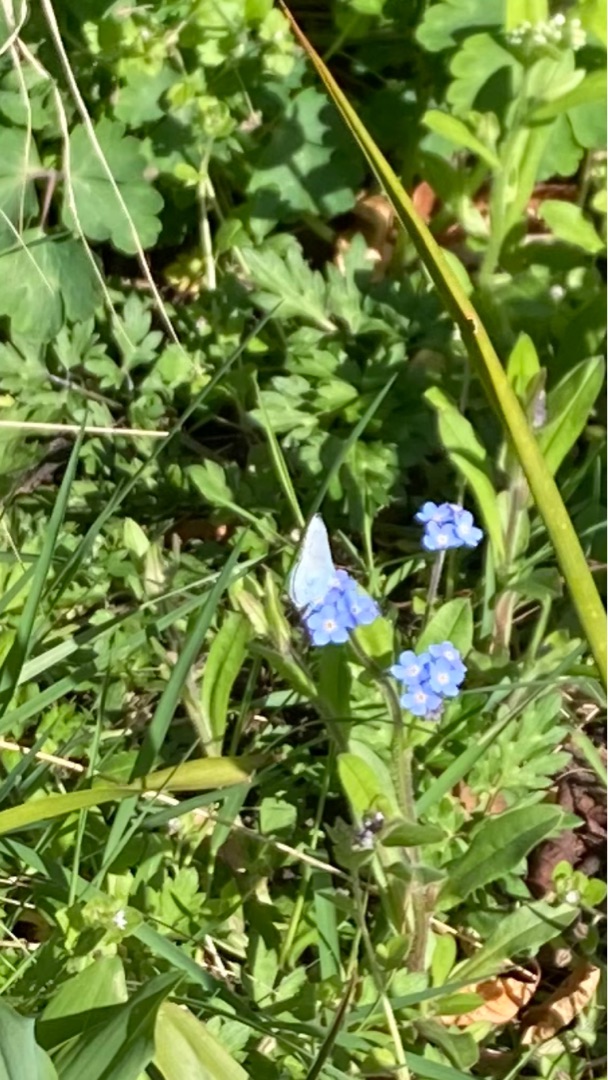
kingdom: Animalia
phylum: Arthropoda
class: Insecta
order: Lepidoptera
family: Lycaenidae
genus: Celastrina
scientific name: Celastrina argiolus
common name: Skovblåfugl
